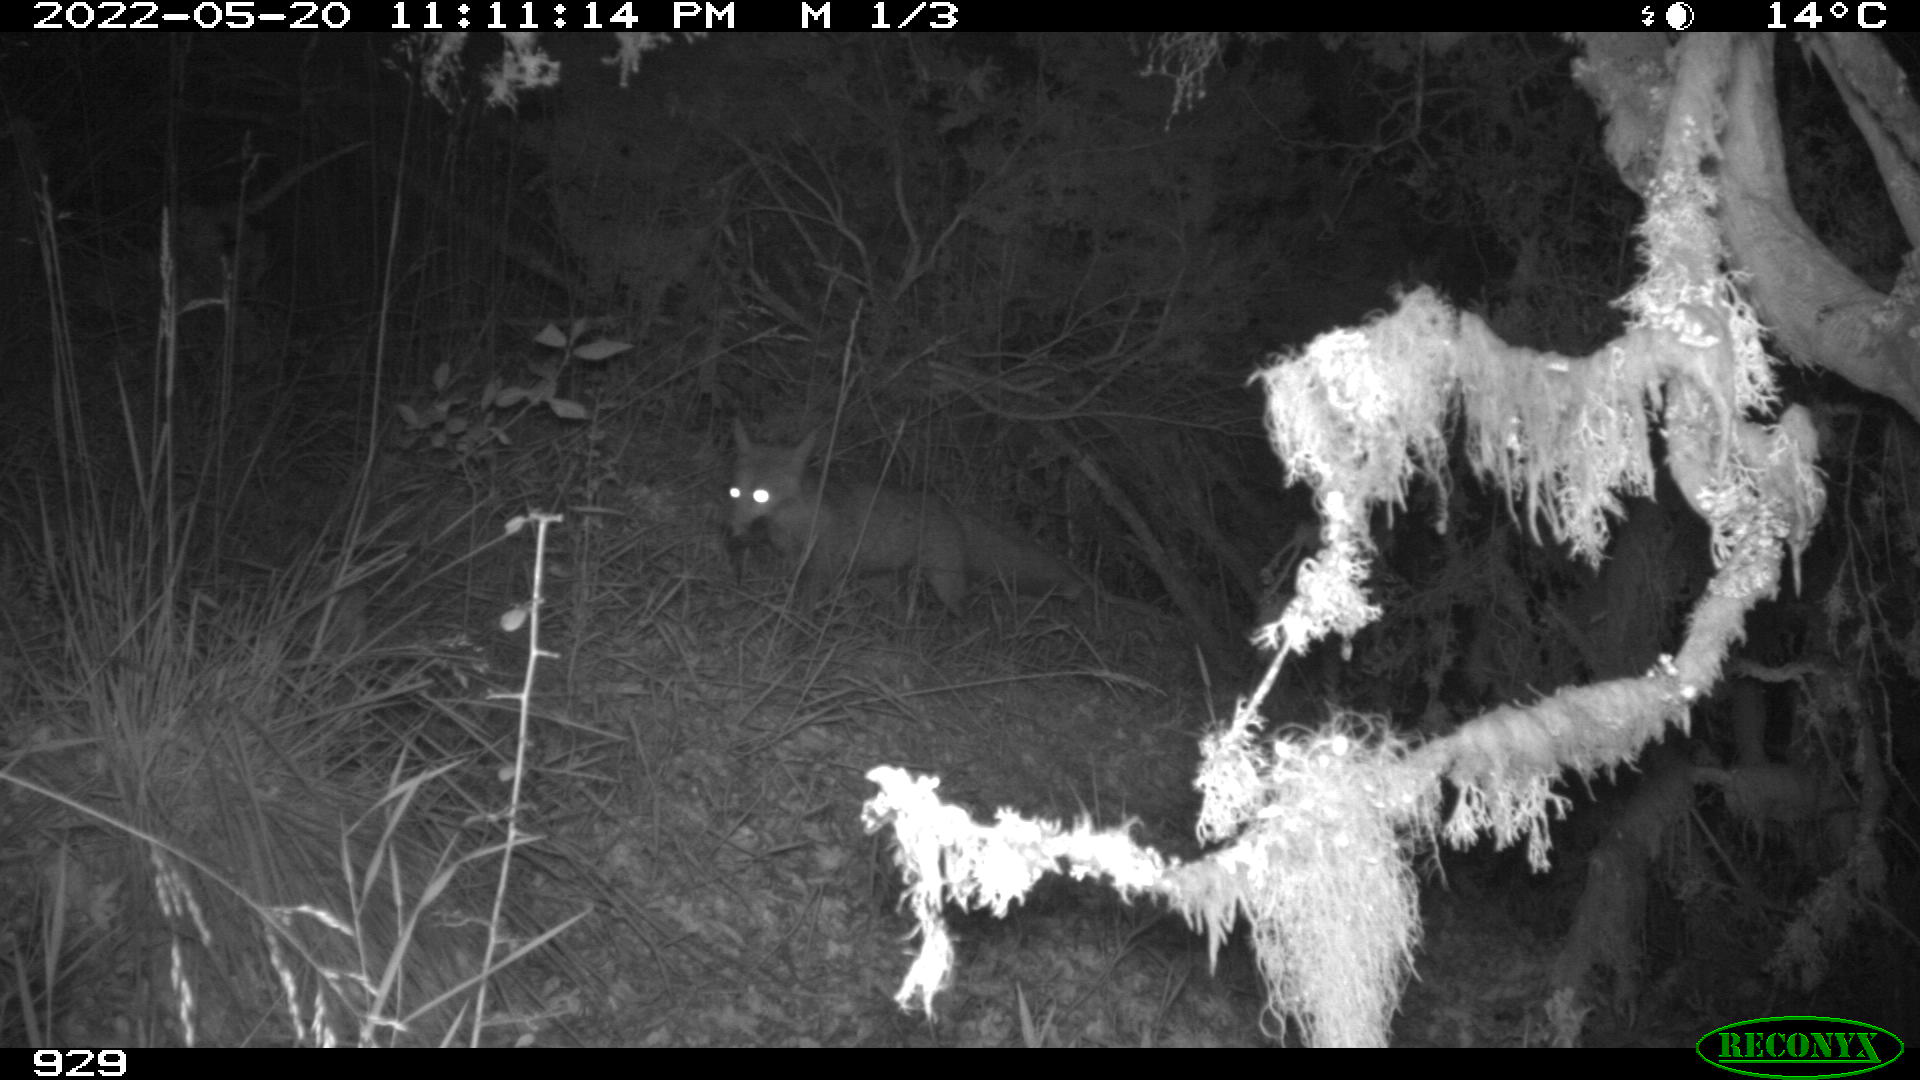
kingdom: Animalia
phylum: Chordata
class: Mammalia
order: Carnivora
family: Canidae
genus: Vulpes
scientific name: Vulpes vulpes
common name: Red fox
